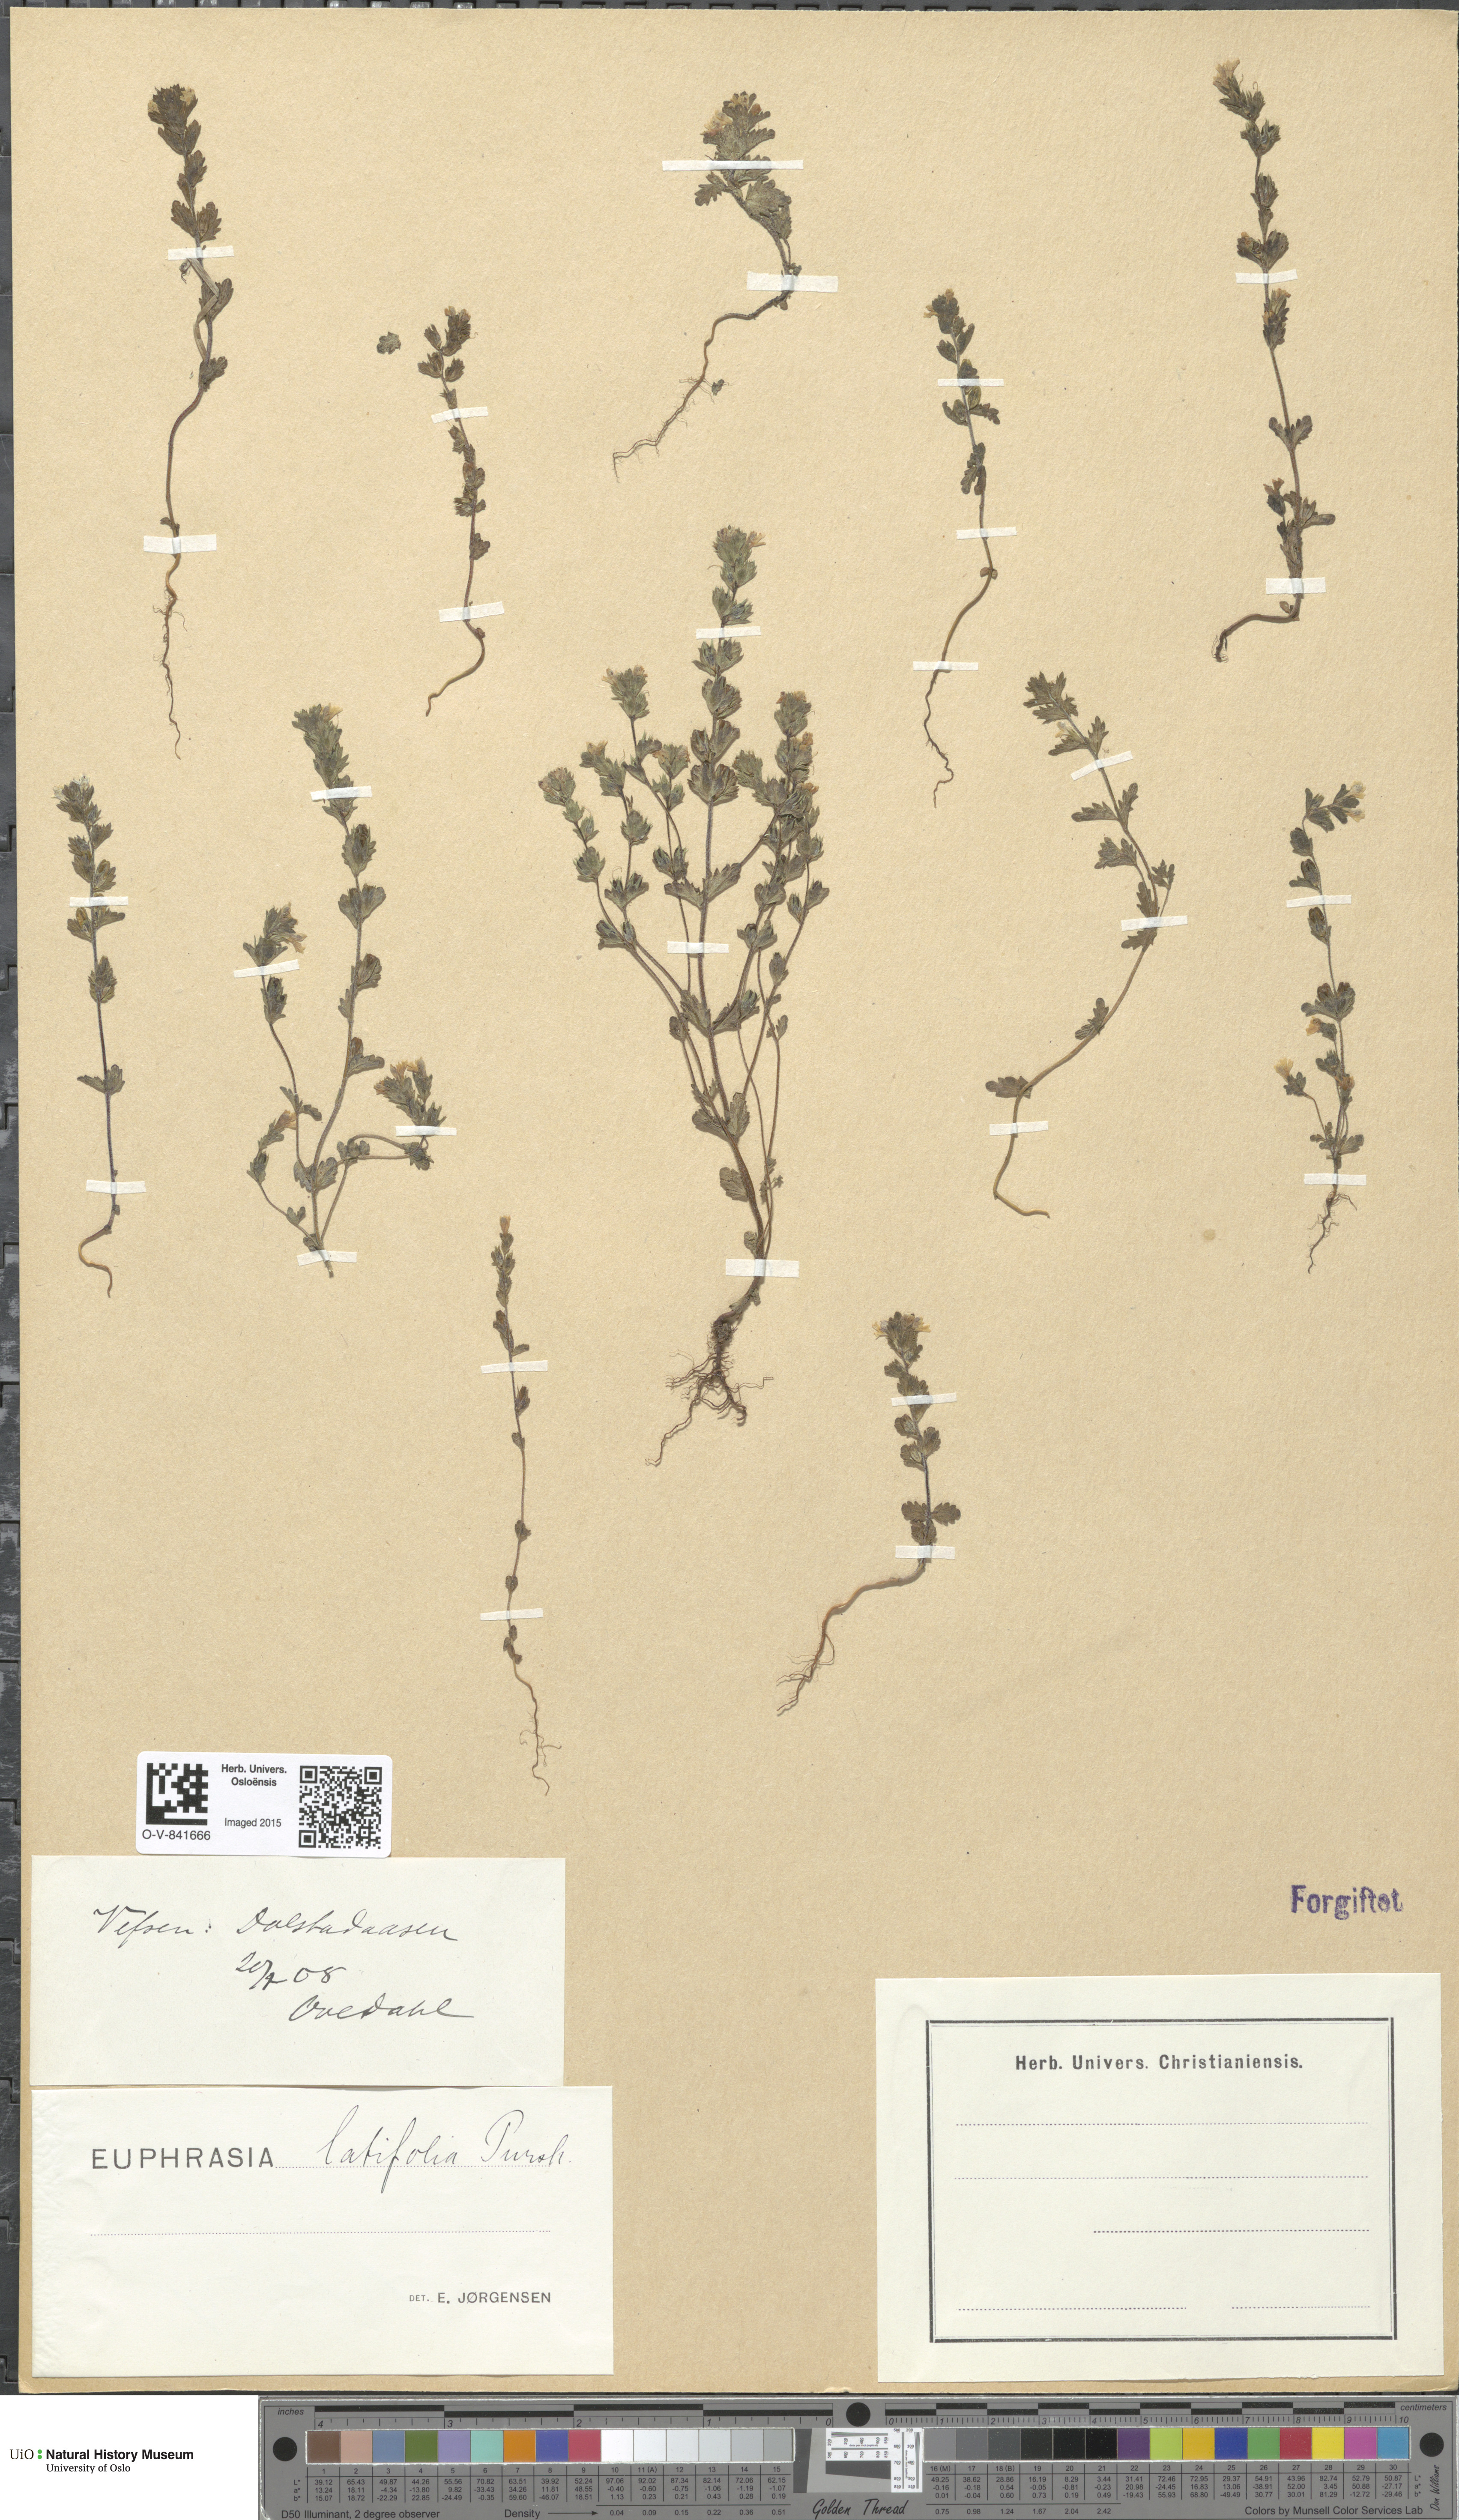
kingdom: Plantae
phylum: Tracheophyta
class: Magnoliopsida
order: Lamiales
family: Orobanchaceae
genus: Euphrasia
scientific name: Euphrasia wettsteinii
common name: Wettstein's eyebright
